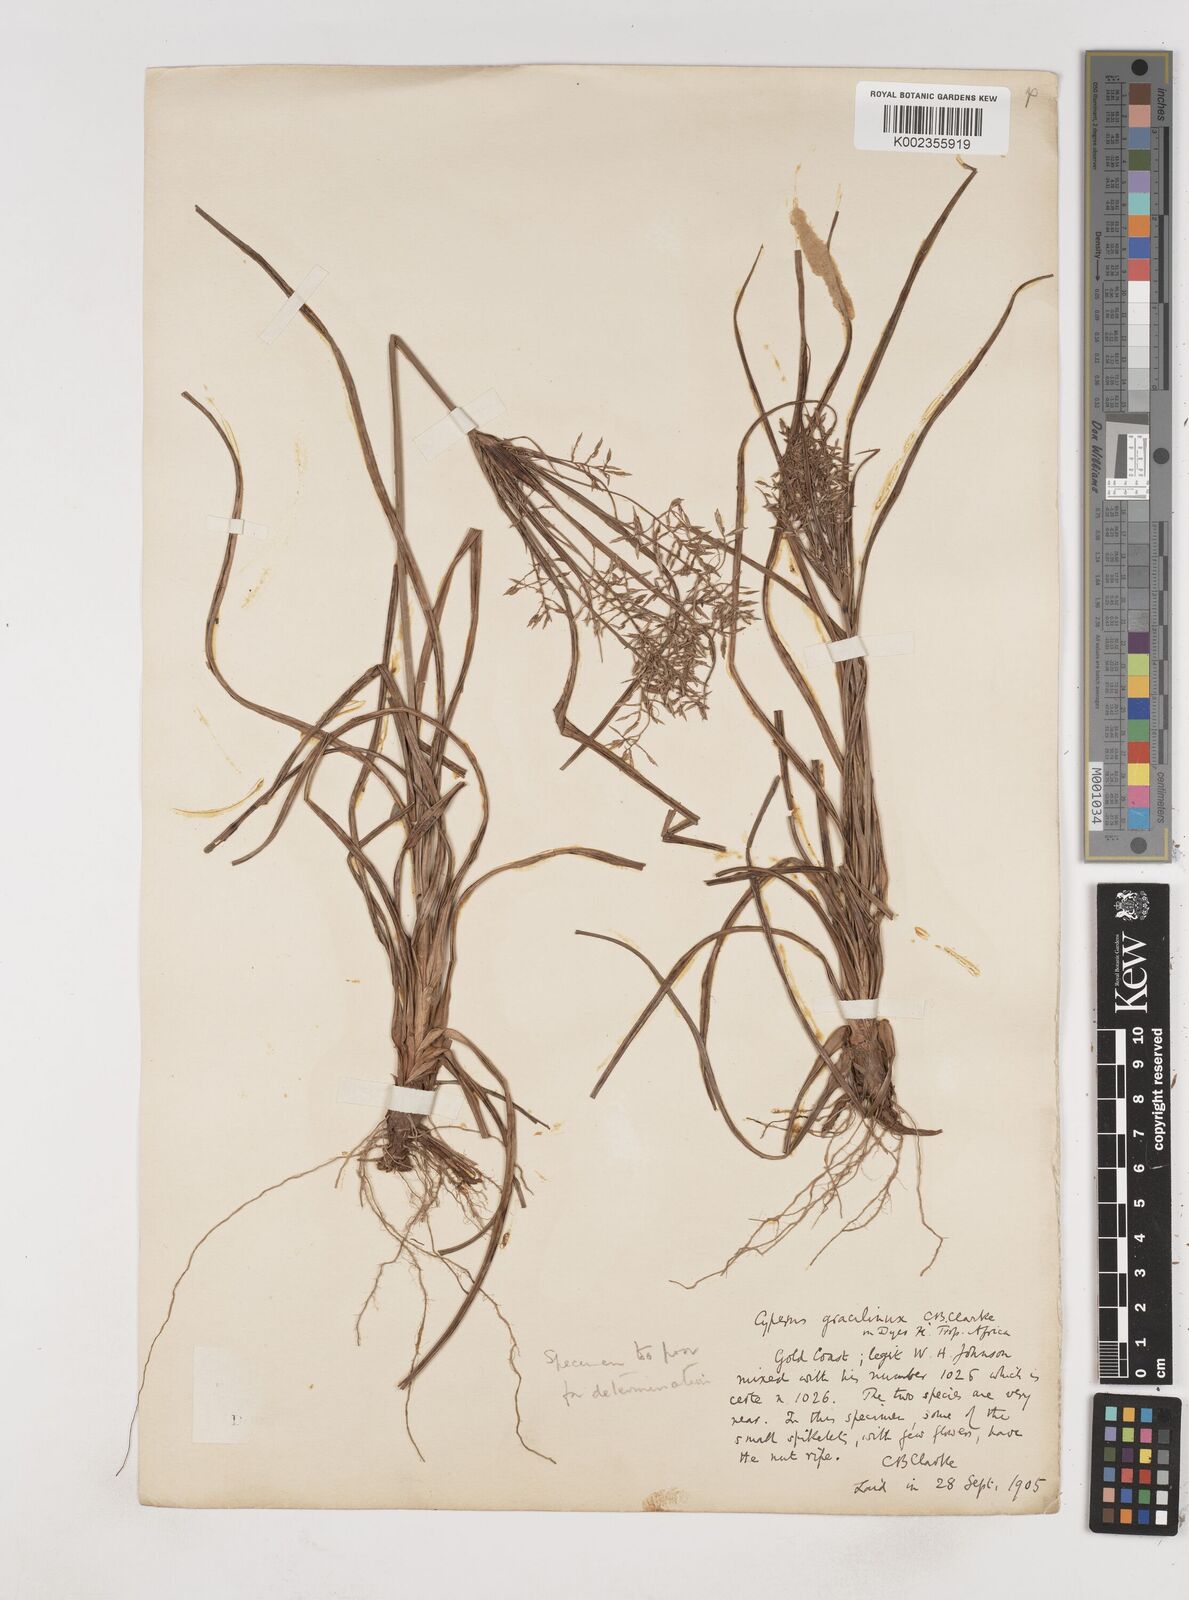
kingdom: Plantae
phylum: Tracheophyta
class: Liliopsida
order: Poales
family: Cyperaceae
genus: Cyperus
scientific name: Cyperus dilatatus
